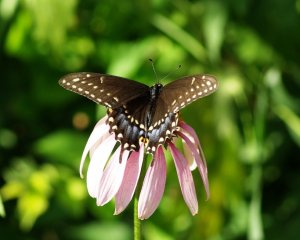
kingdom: Animalia
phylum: Arthropoda
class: Insecta
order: Lepidoptera
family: Papilionidae
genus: Papilio
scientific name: Papilio polyxenes
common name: Black Swallowtail
